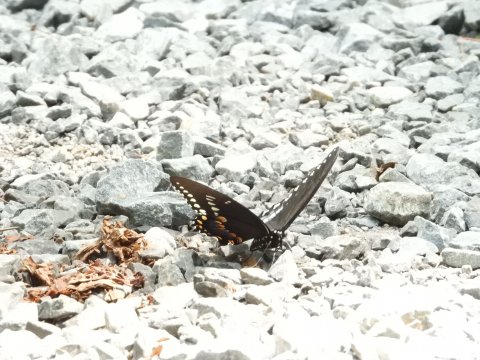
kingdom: Animalia
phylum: Arthropoda
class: Insecta
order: Lepidoptera
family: Papilionidae
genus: Pterourus
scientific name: Pterourus troilus
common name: Spicebush Swallowtail
